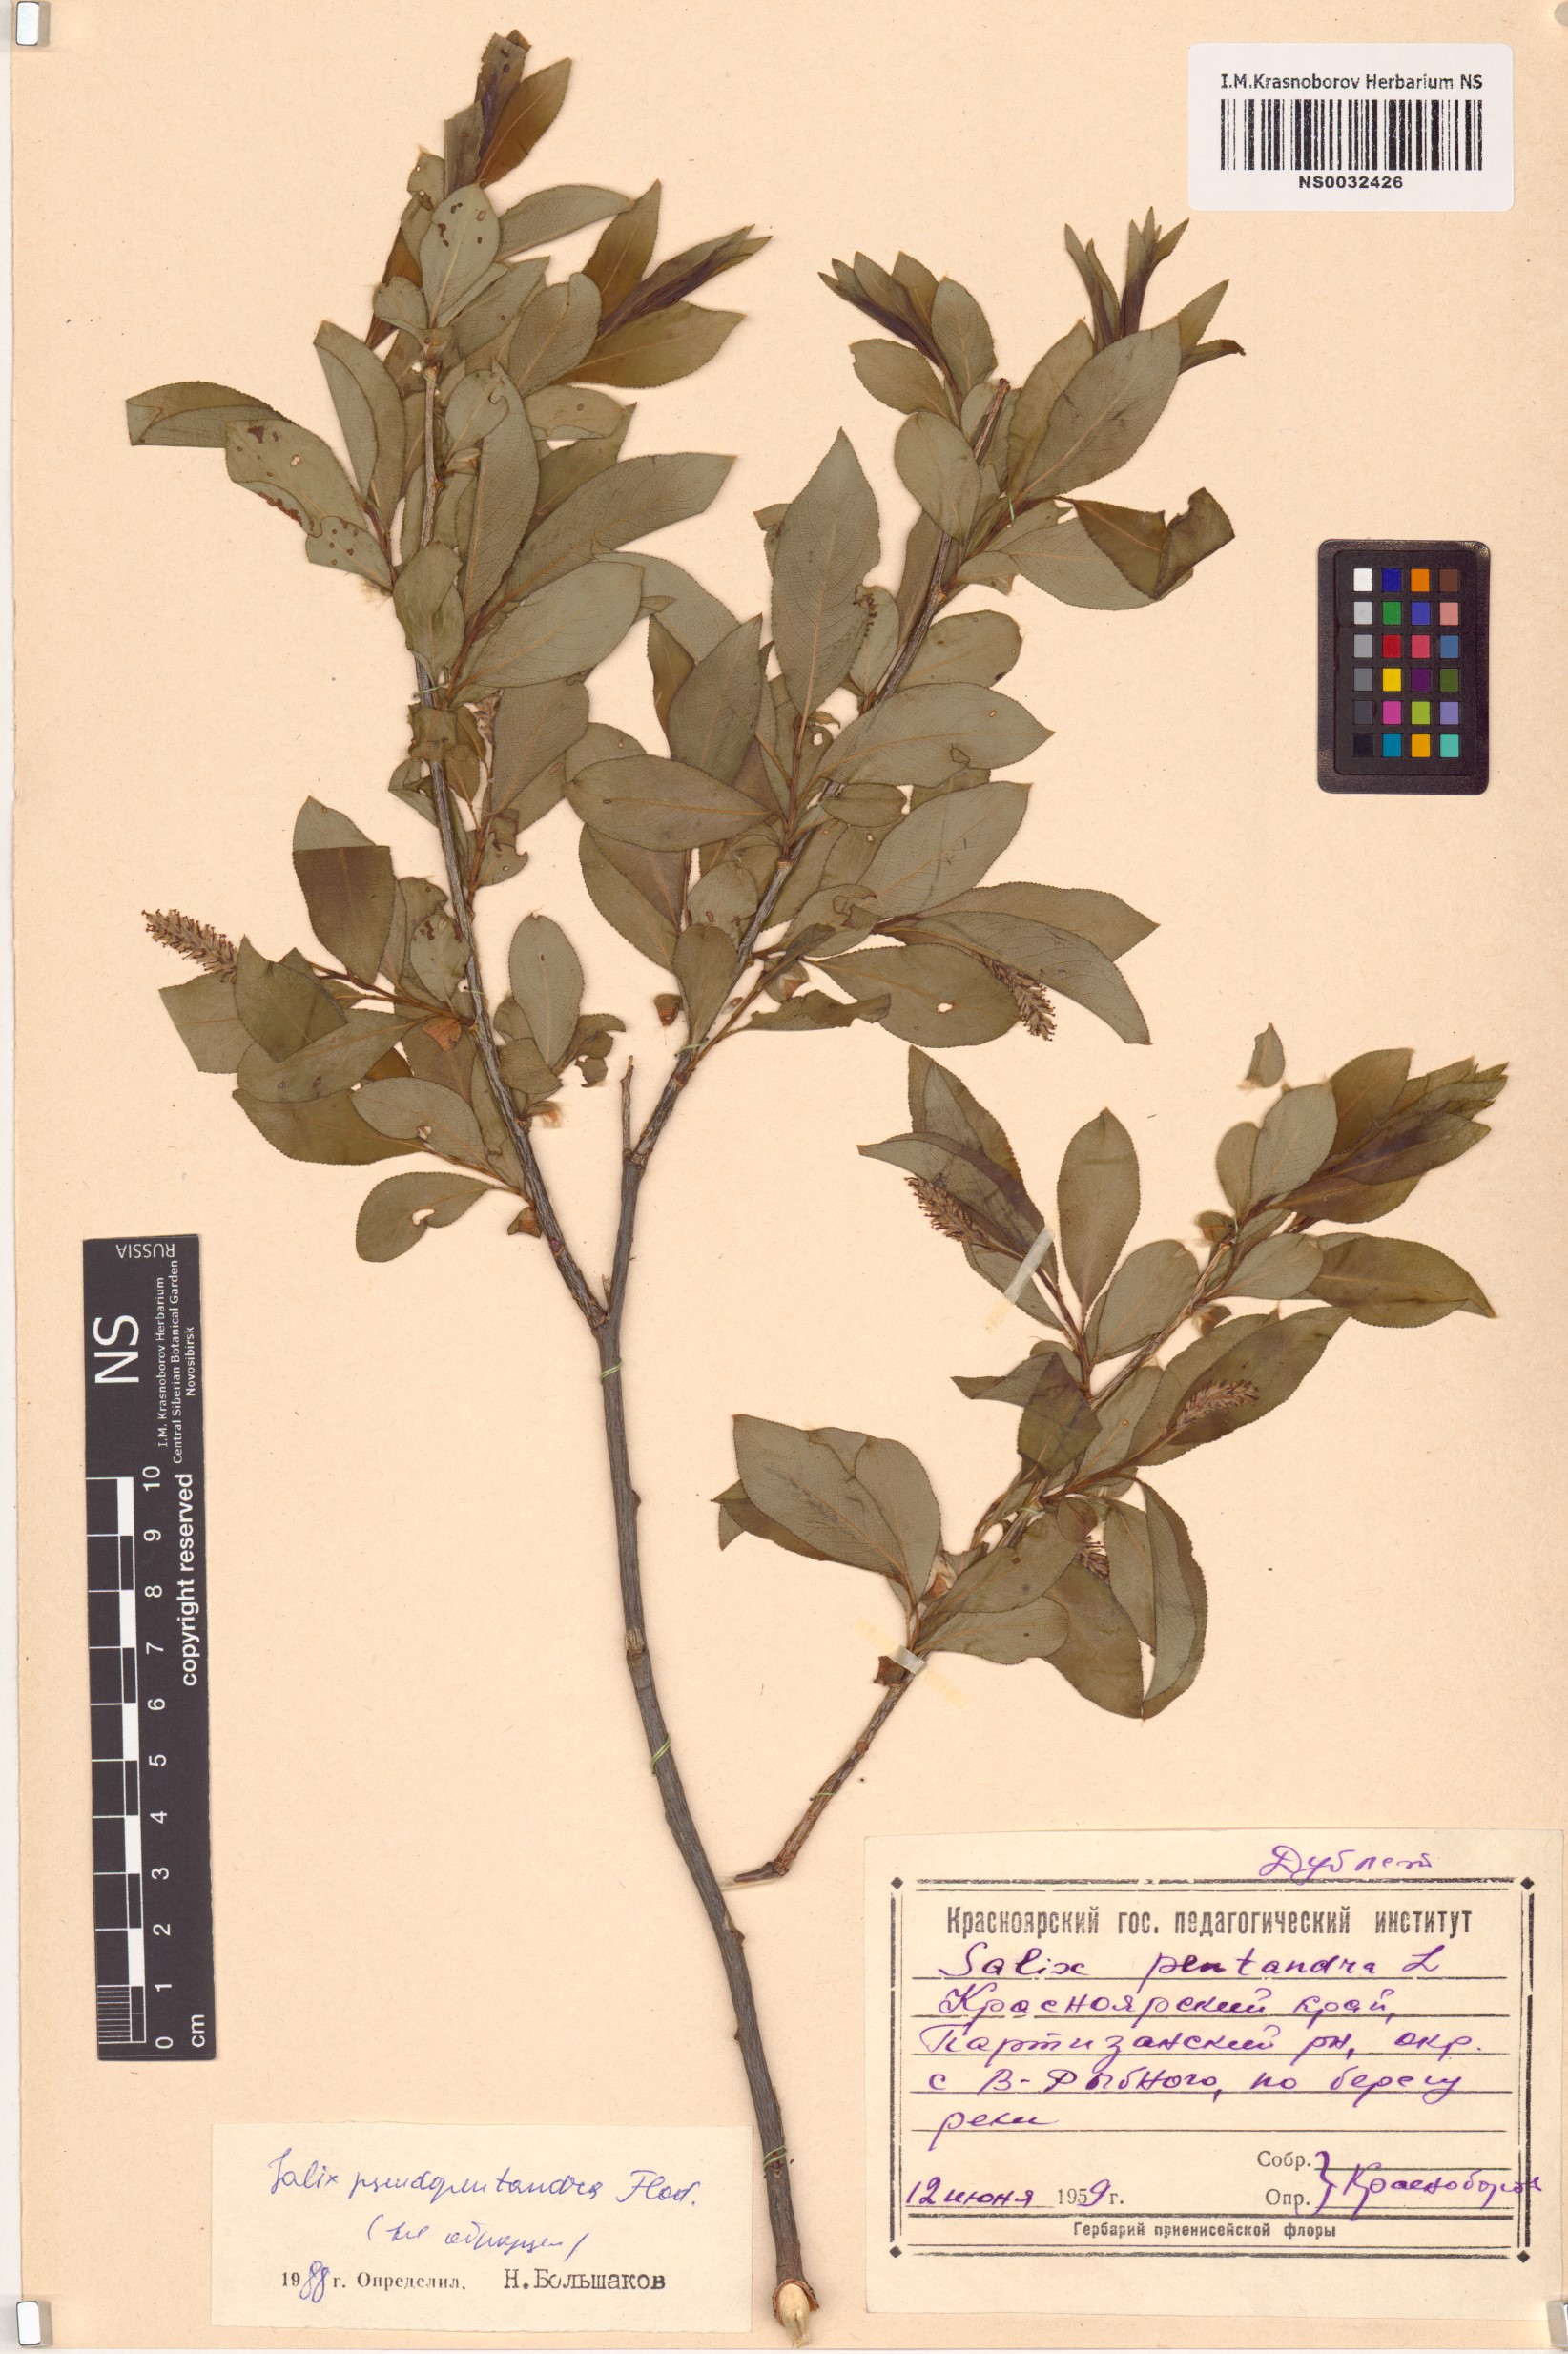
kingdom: Plantae
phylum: Tracheophyta
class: Magnoliopsida
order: Malpighiales
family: Salicaceae
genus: Salix
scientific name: Salix pseudopentandra
